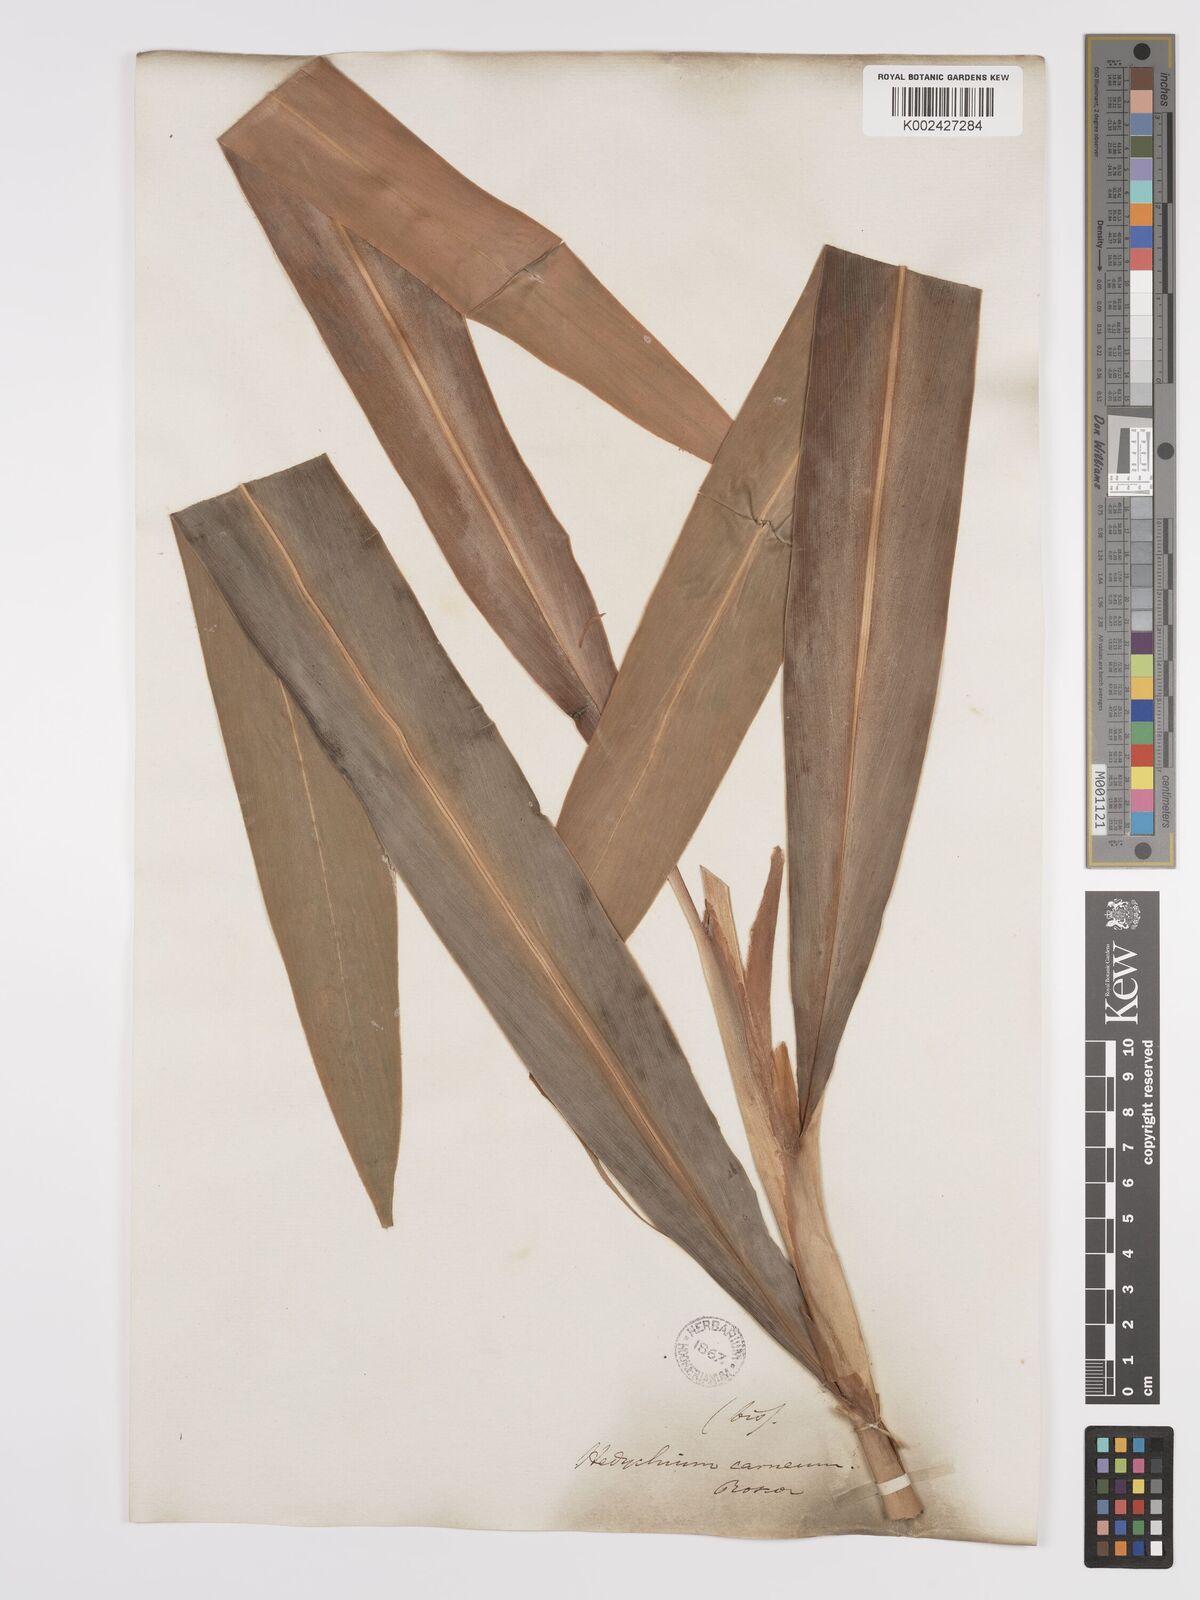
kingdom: Plantae
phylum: Tracheophyta
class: Liliopsida
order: Zingiberales
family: Zingiberaceae
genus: Hedychium
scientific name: Hedychium coccineum
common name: Red ginger-lily
